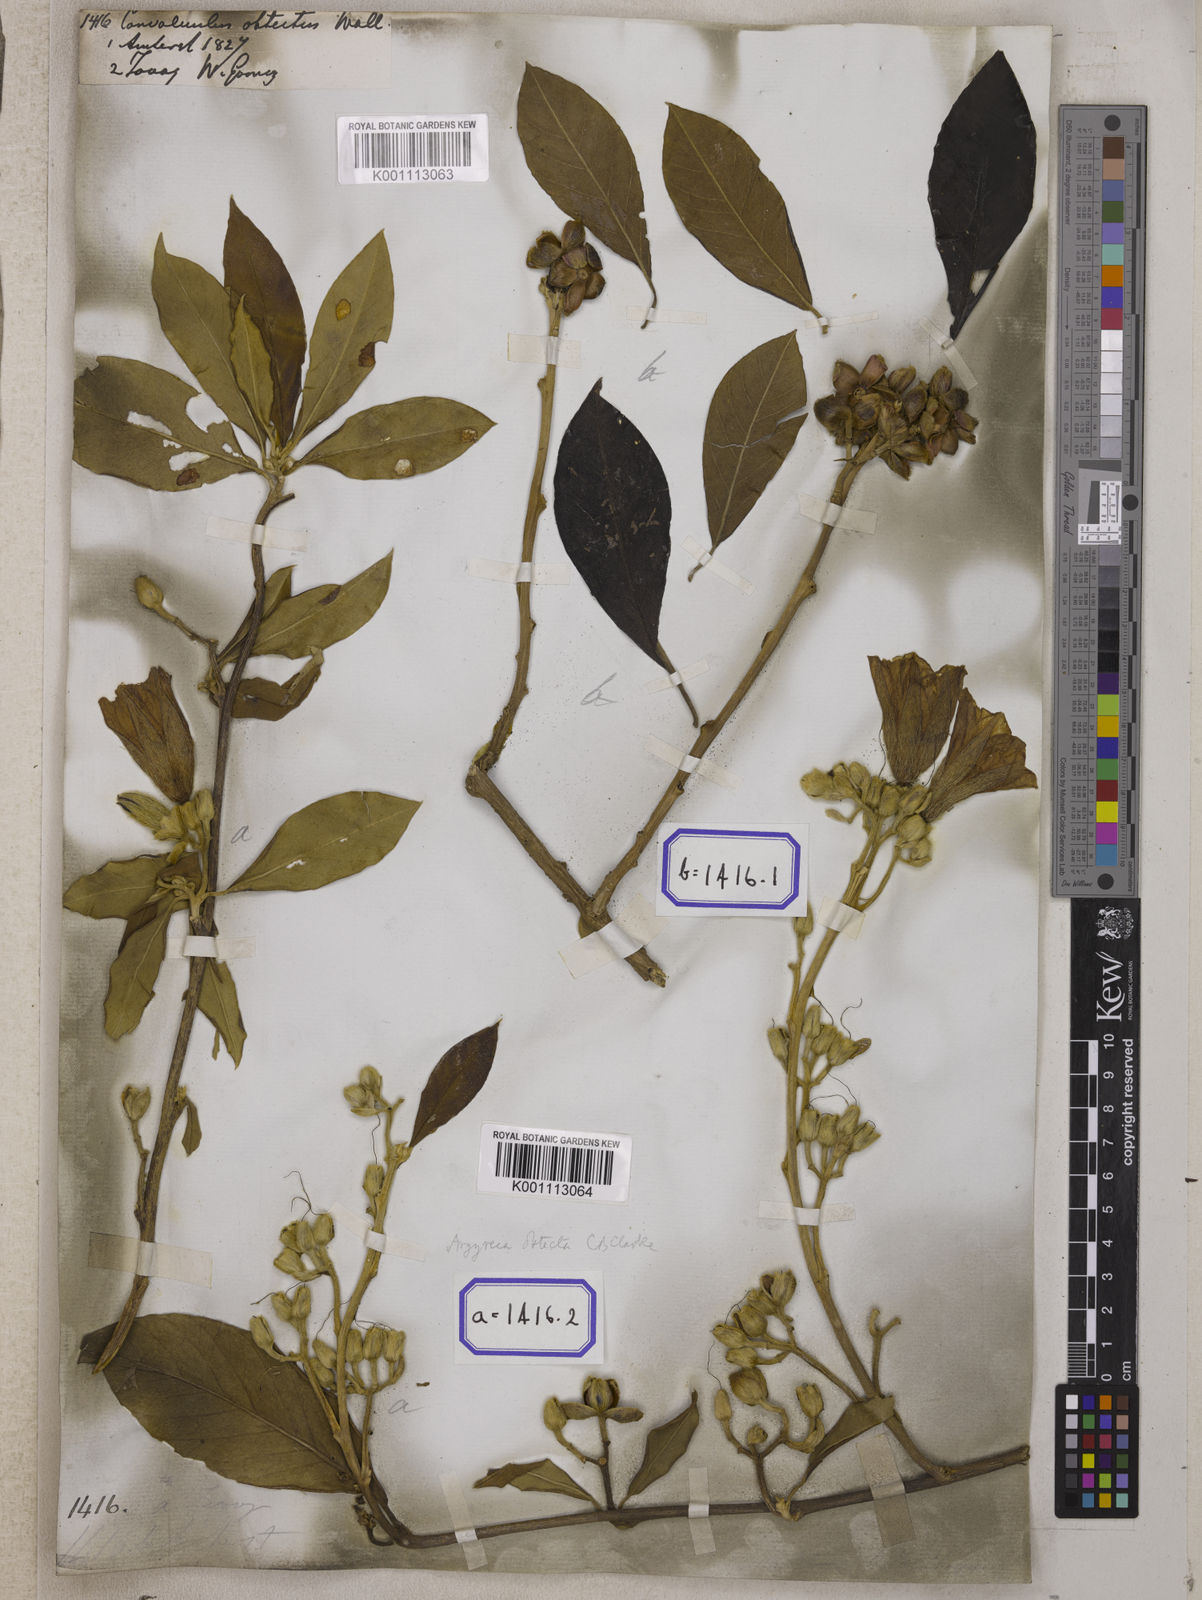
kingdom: Plantae
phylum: Tracheophyta
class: Magnoliopsida
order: Solanales
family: Convolvulaceae
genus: Convolvulus
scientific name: Convolvulus
